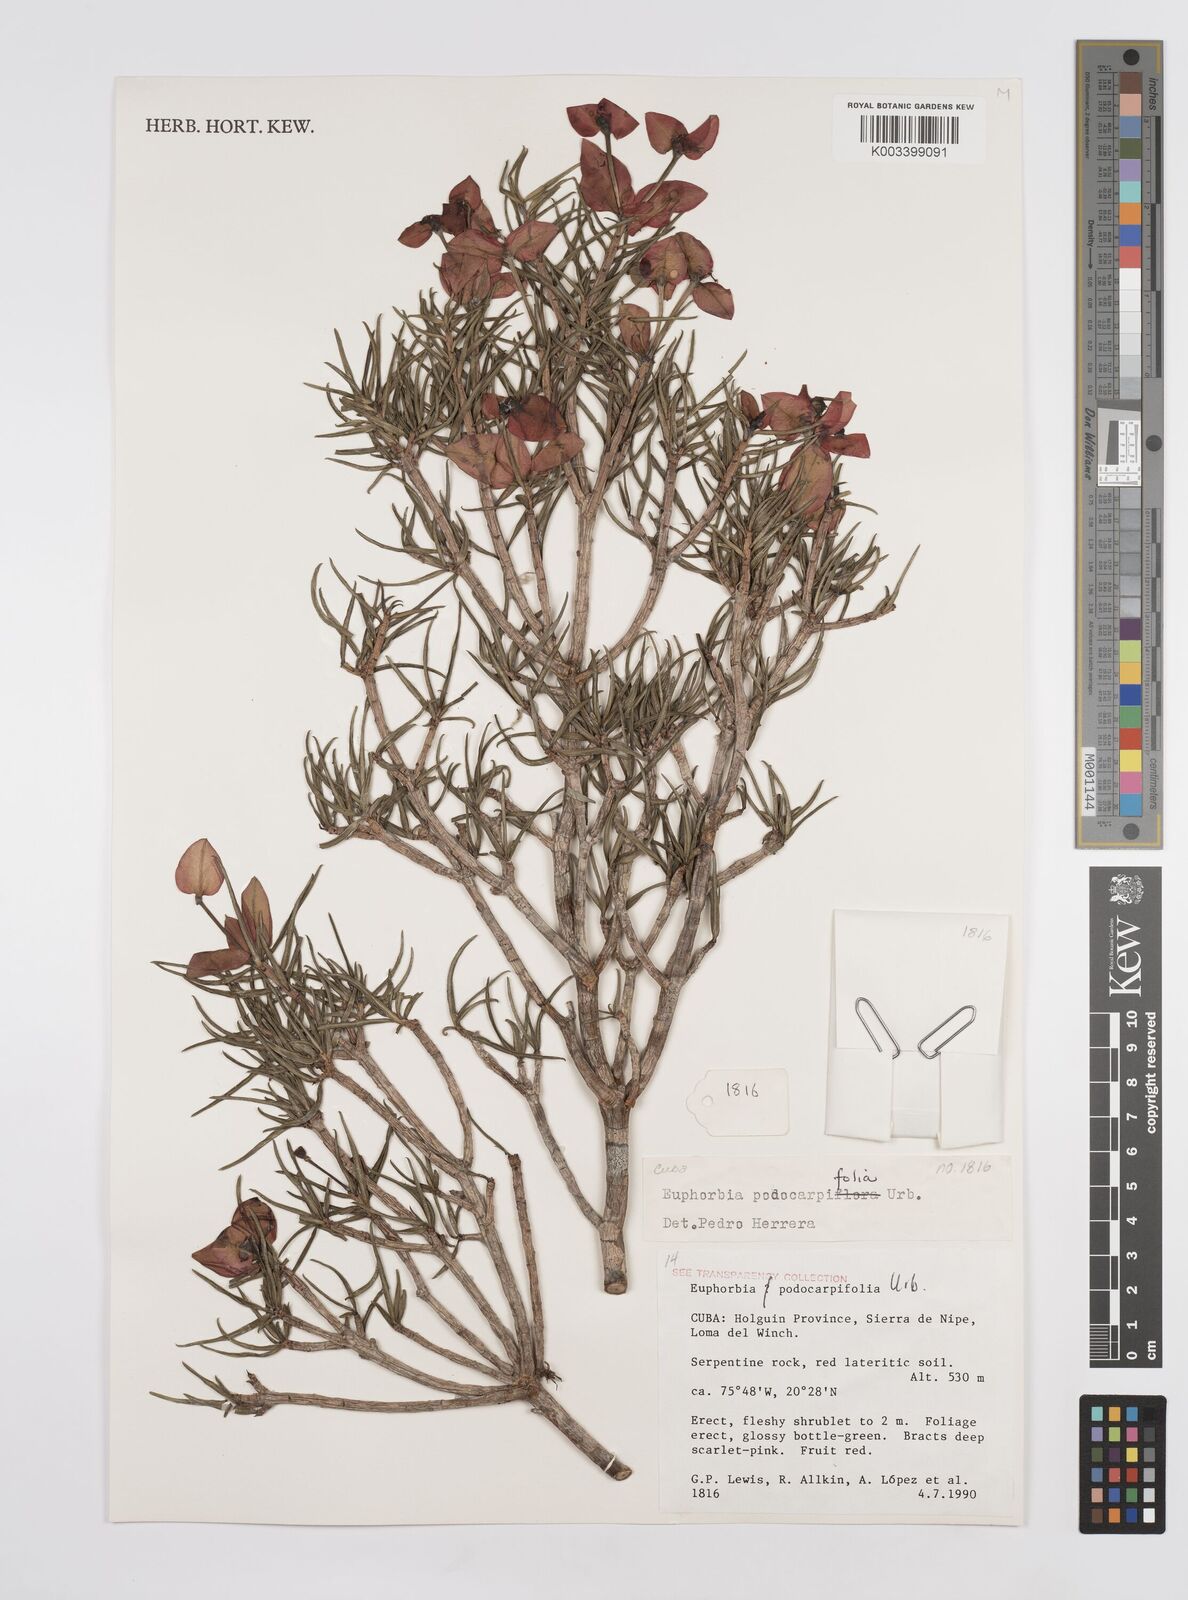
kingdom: Plantae
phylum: Tracheophyta
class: Magnoliopsida
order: Malpighiales
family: Euphorbiaceae
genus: Euphorbia
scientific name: Euphorbia podocarpifolia
